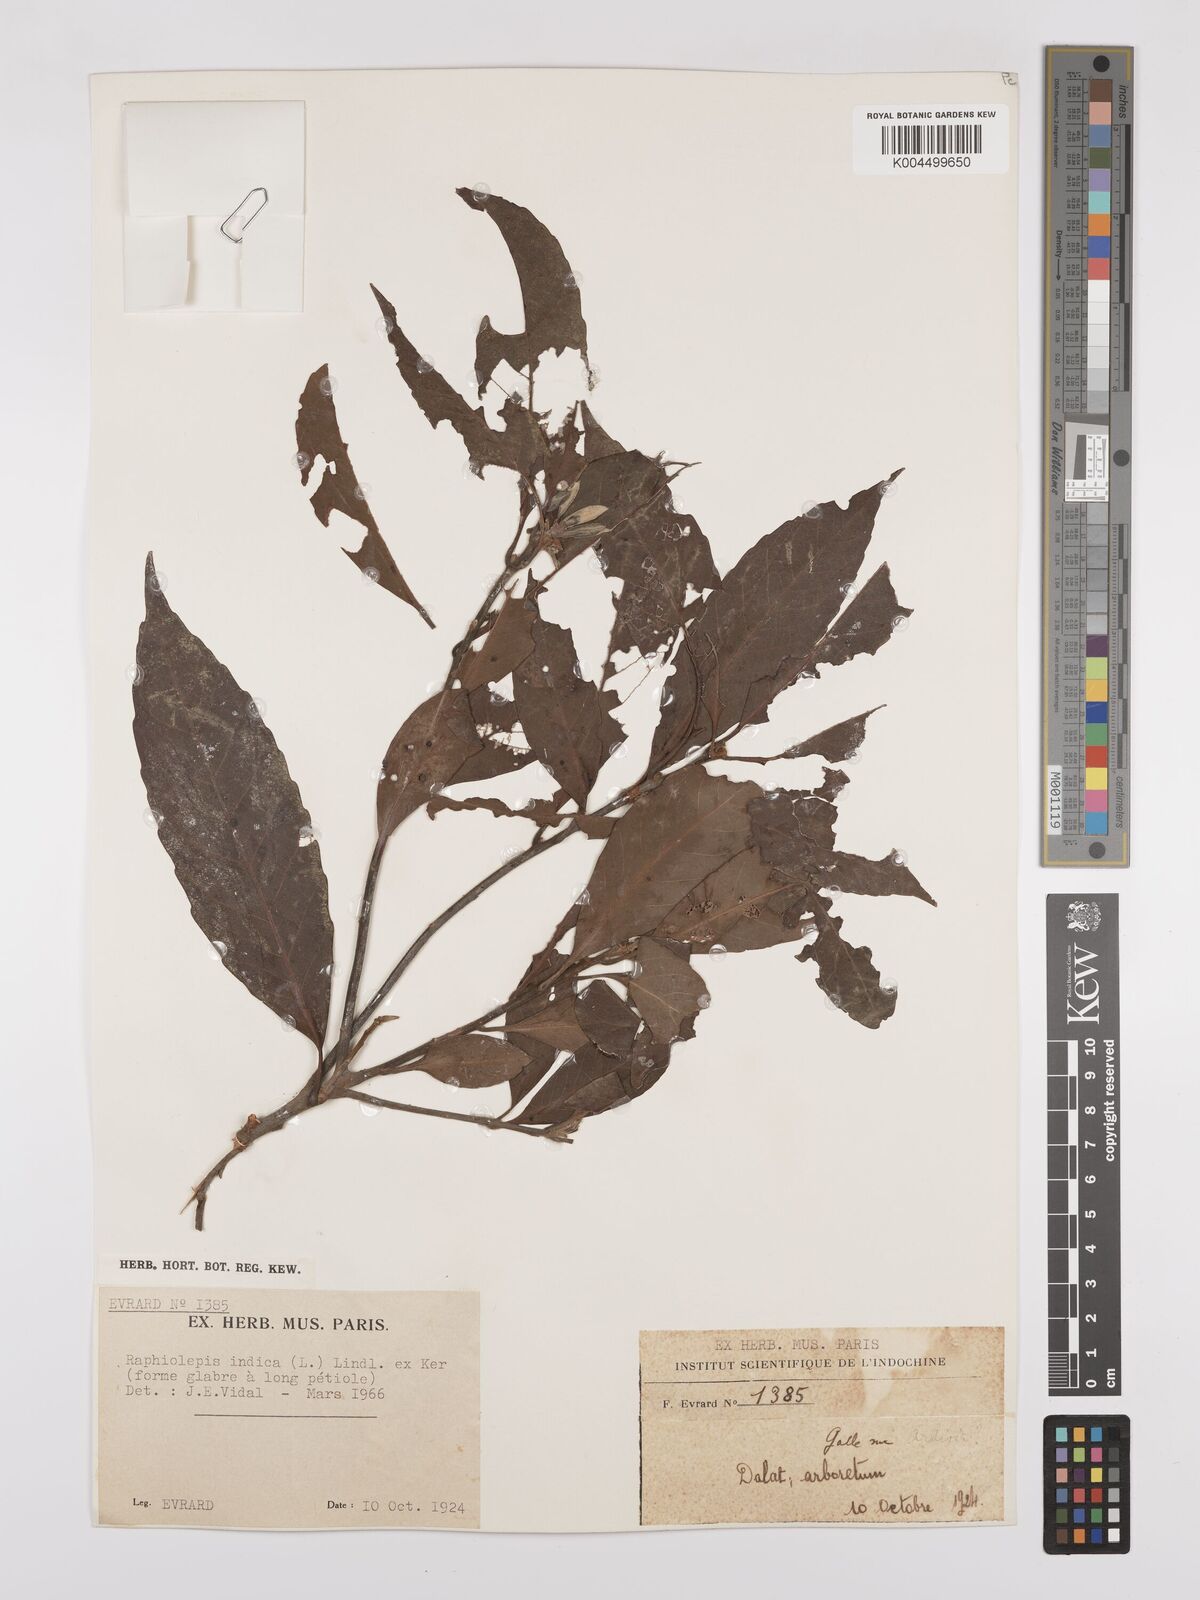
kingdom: Plantae
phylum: Tracheophyta
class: Magnoliopsida
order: Rosales
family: Rosaceae
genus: Rhaphiolepis
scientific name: Rhaphiolepis indica
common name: India-hawthorn
